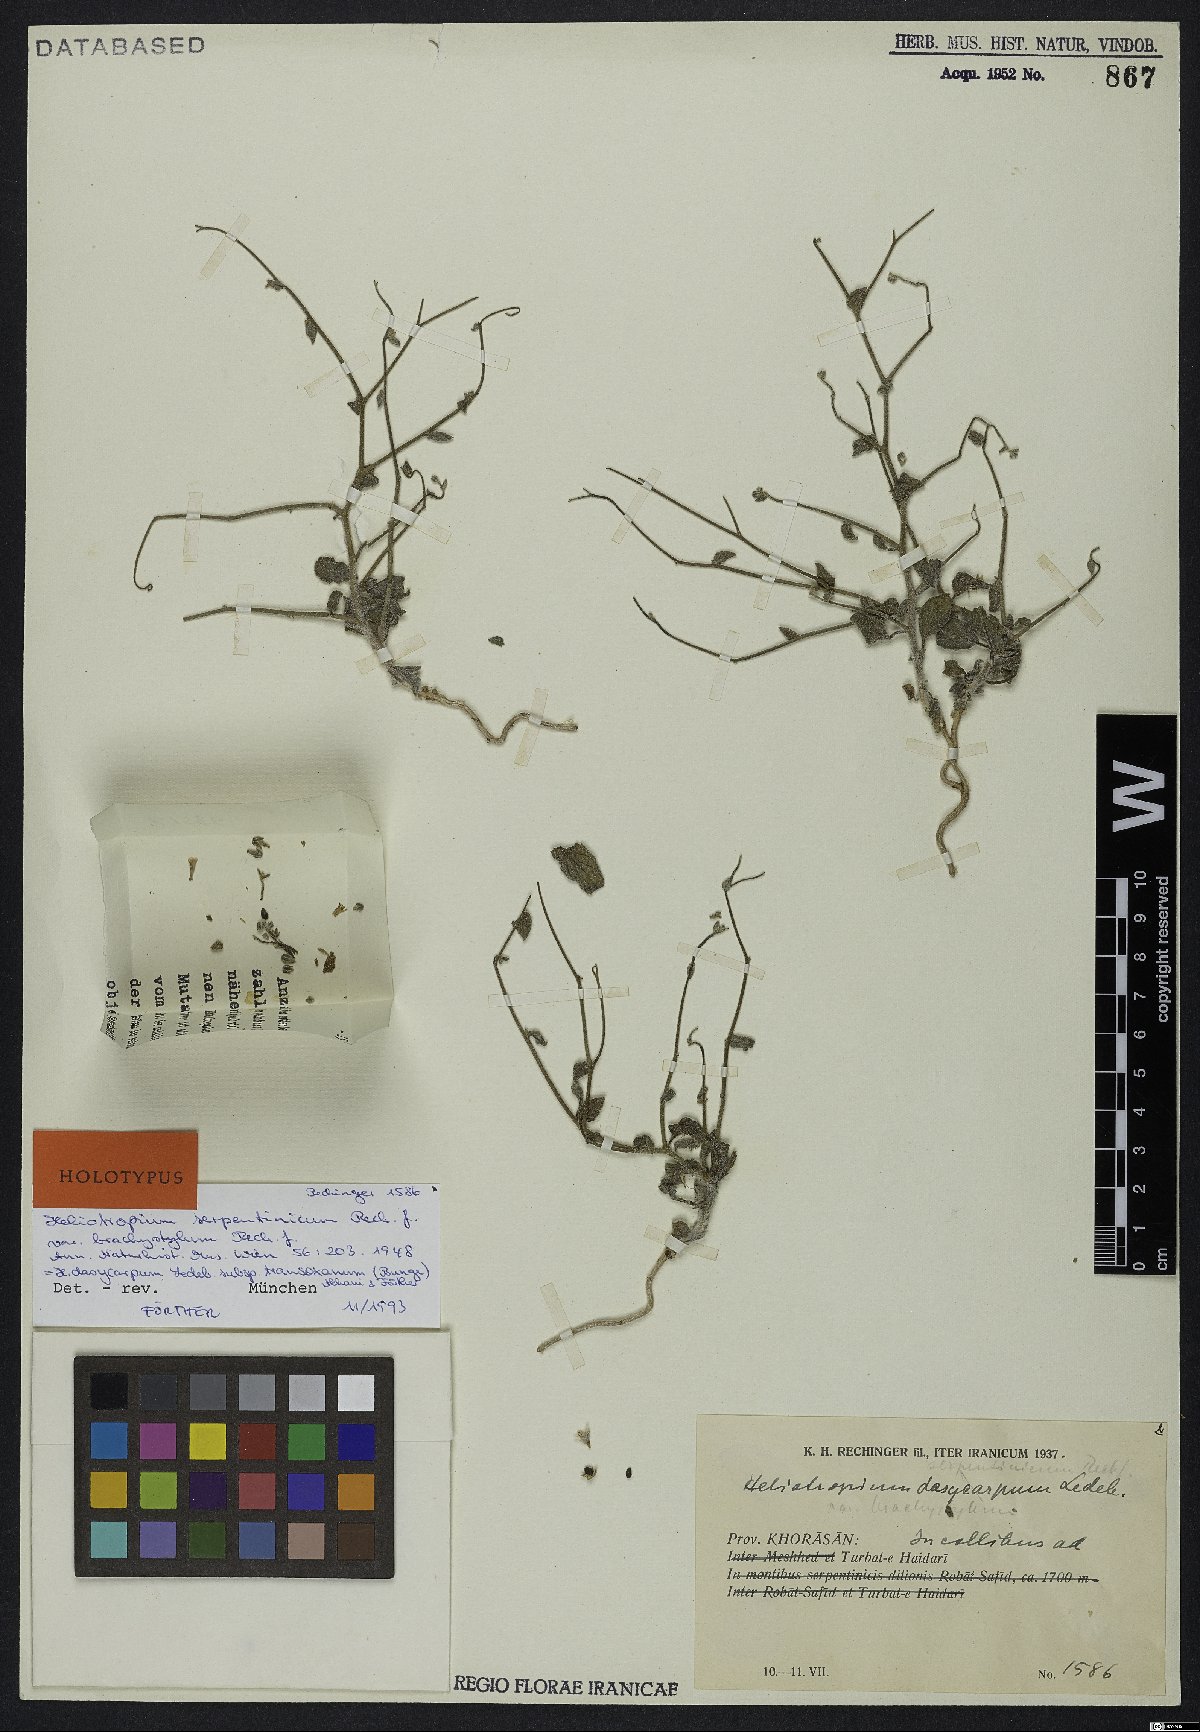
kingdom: Plantae
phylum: Tracheophyta
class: Magnoliopsida
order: Boraginales
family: Heliotropiaceae
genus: Heliotropium
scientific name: Heliotropium dasycarpum
